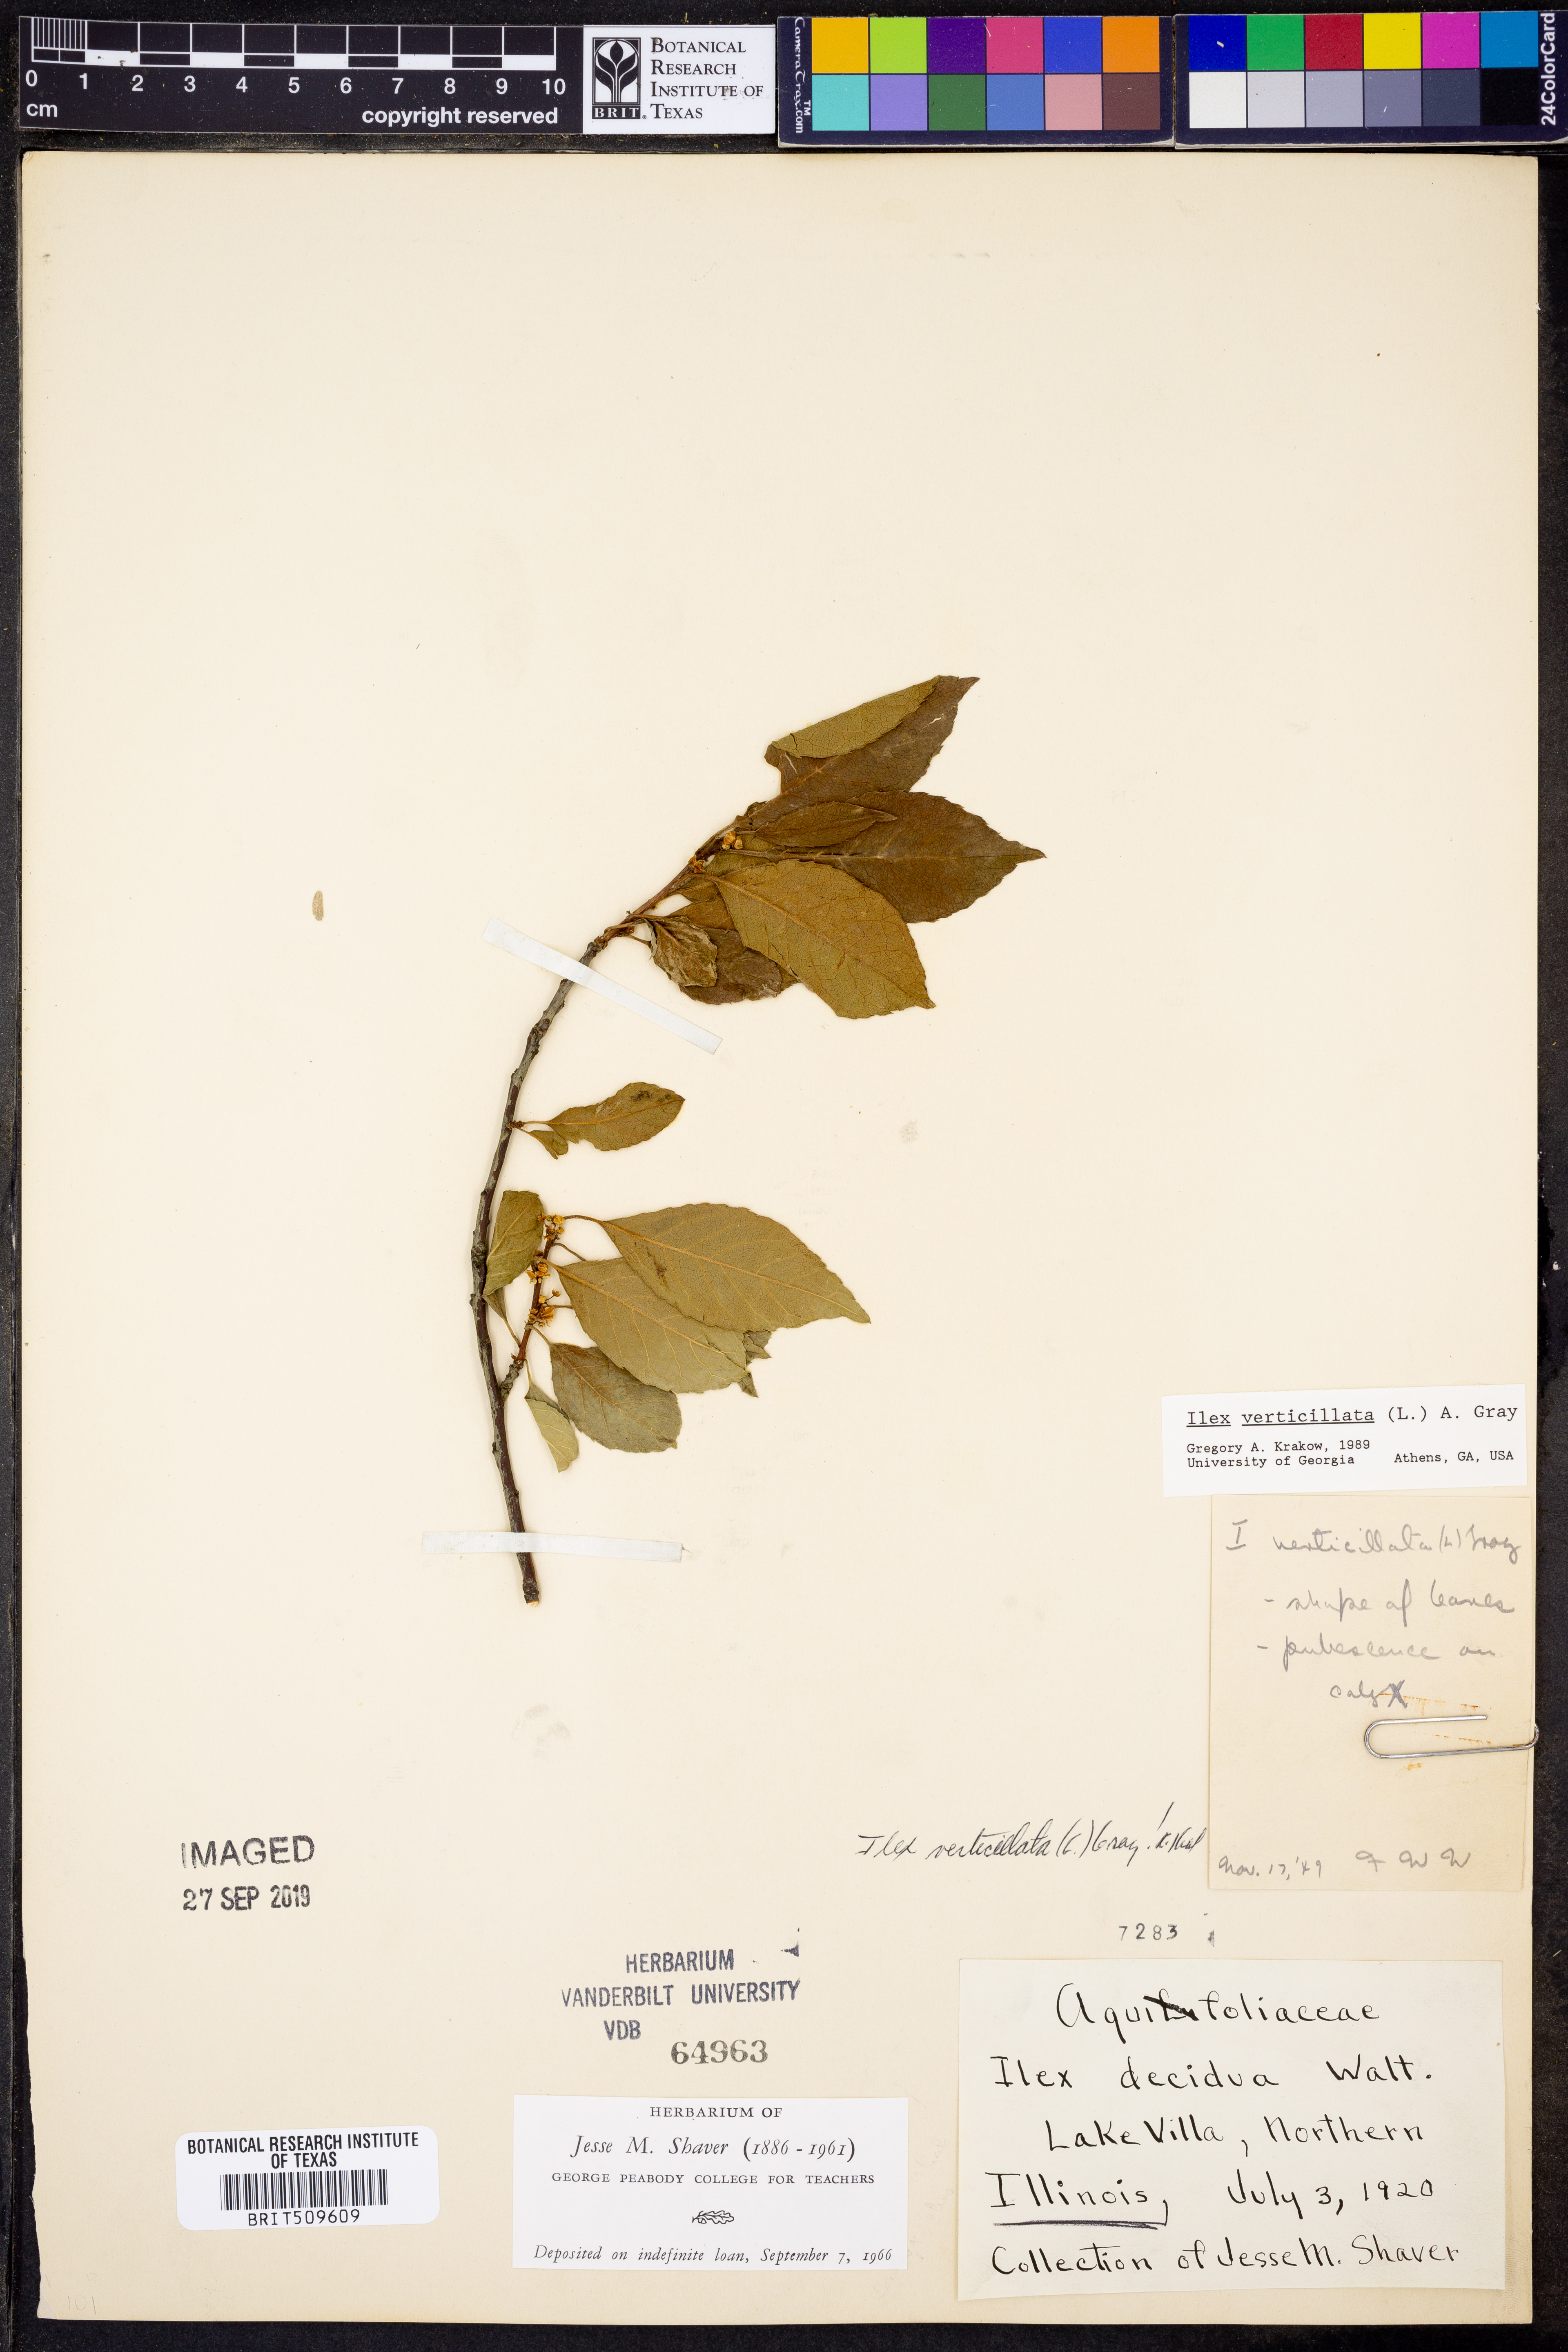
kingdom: Plantae
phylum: Tracheophyta
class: Magnoliopsida
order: Aquifoliales
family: Aquifoliaceae
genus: Ilex
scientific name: Ilex verticillata
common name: Virginia winterberry
